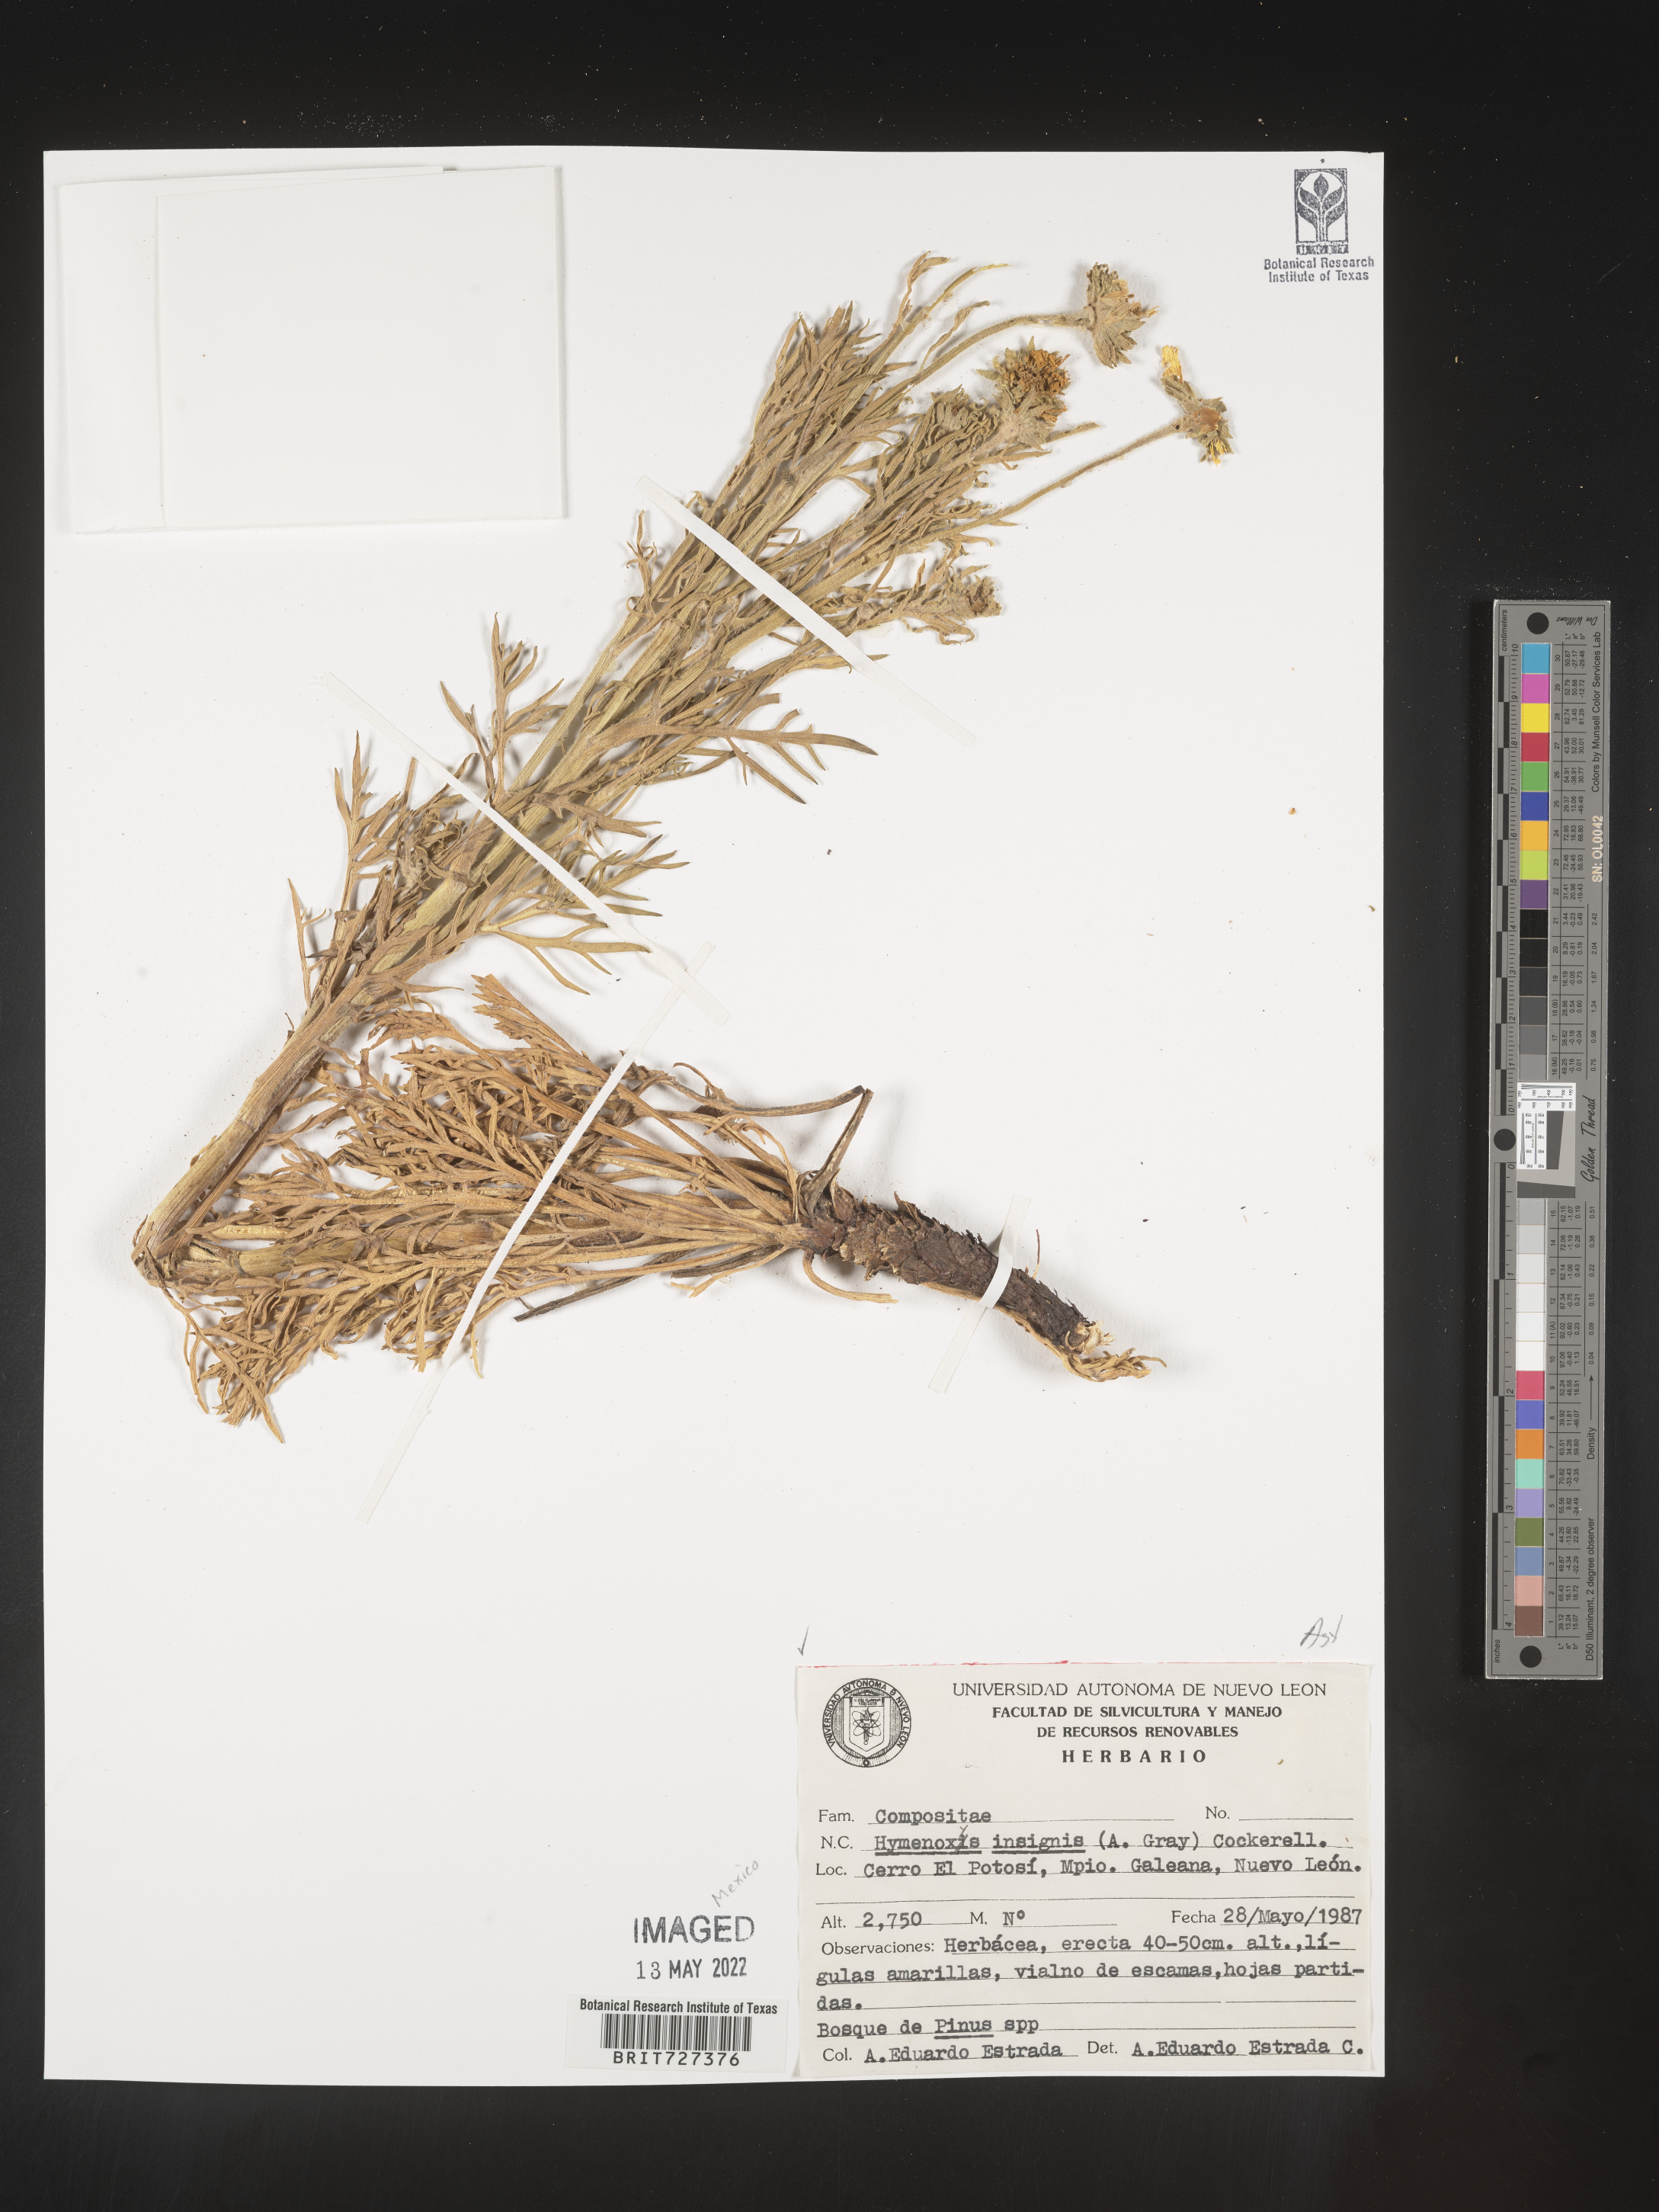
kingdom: Plantae
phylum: Tracheophyta
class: Magnoliopsida
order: Asterales
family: Asteraceae
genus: Hymenoxys
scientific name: Hymenoxys
